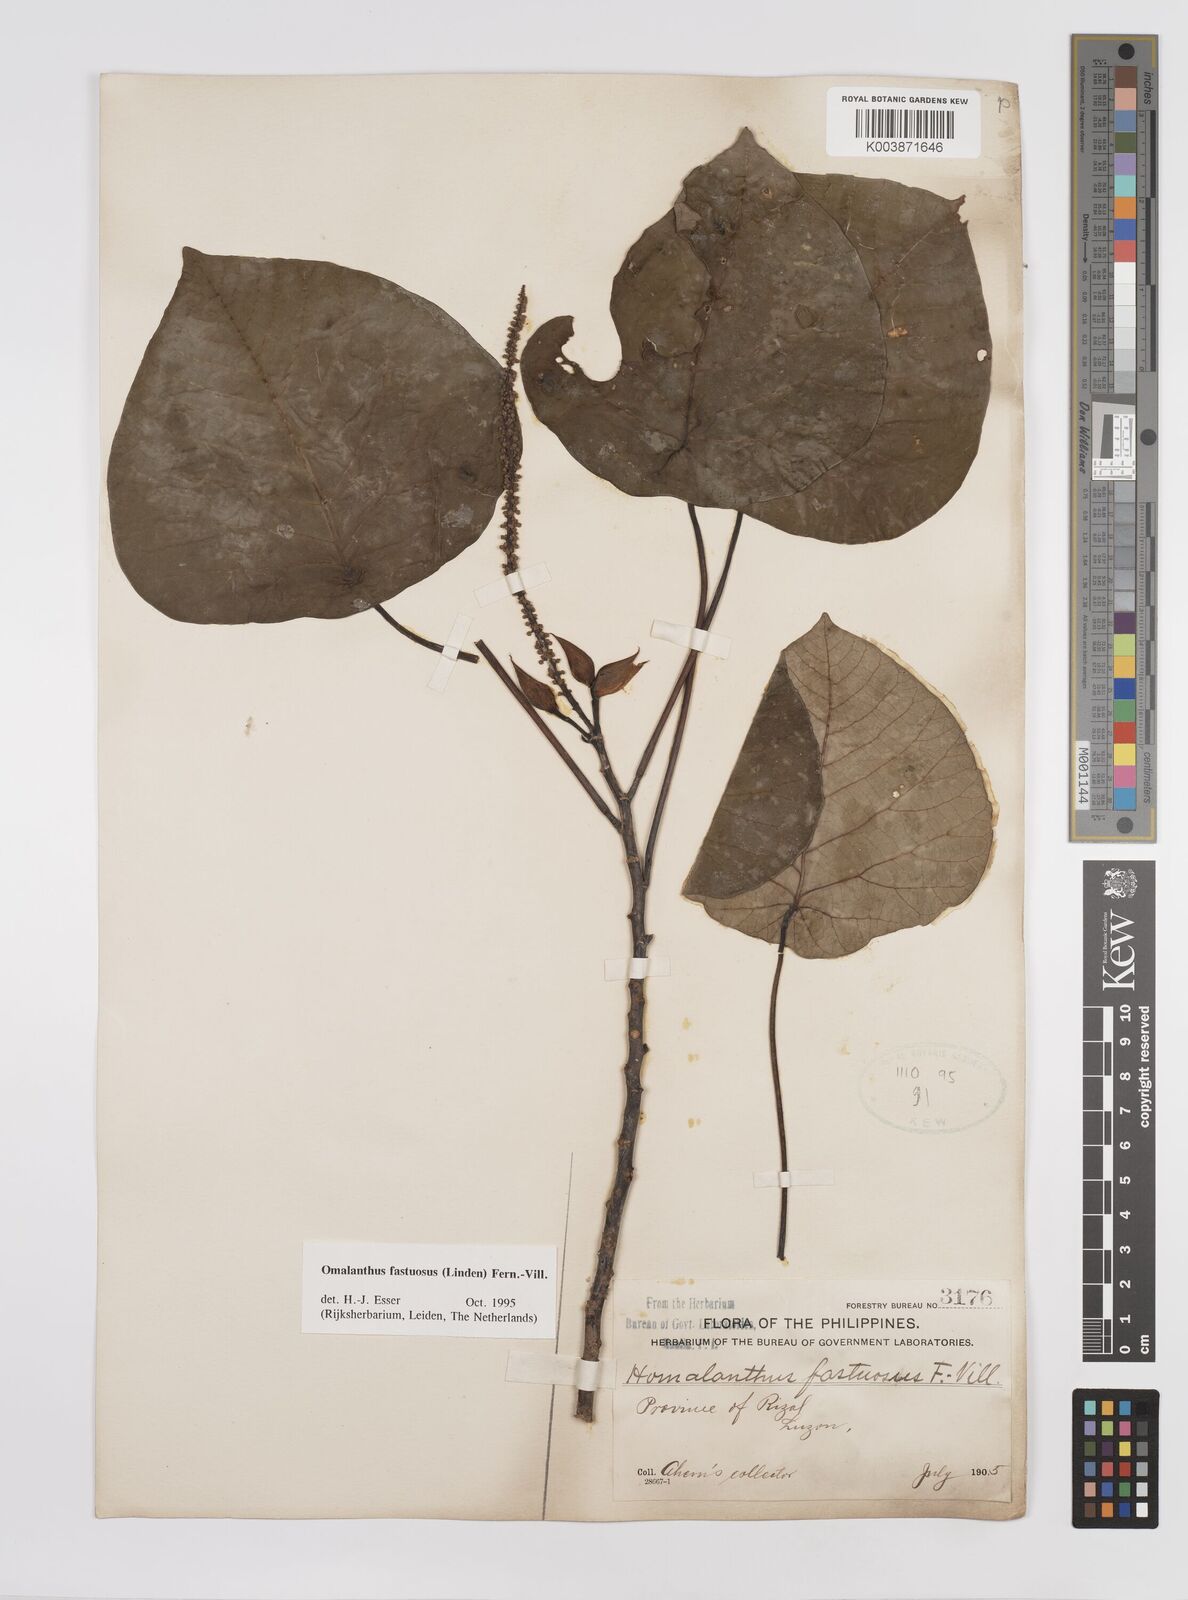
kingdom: Plantae
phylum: Tracheophyta
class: Magnoliopsida
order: Malpighiales
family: Euphorbiaceae
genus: Homalanthus
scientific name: Homalanthus fastuosus
